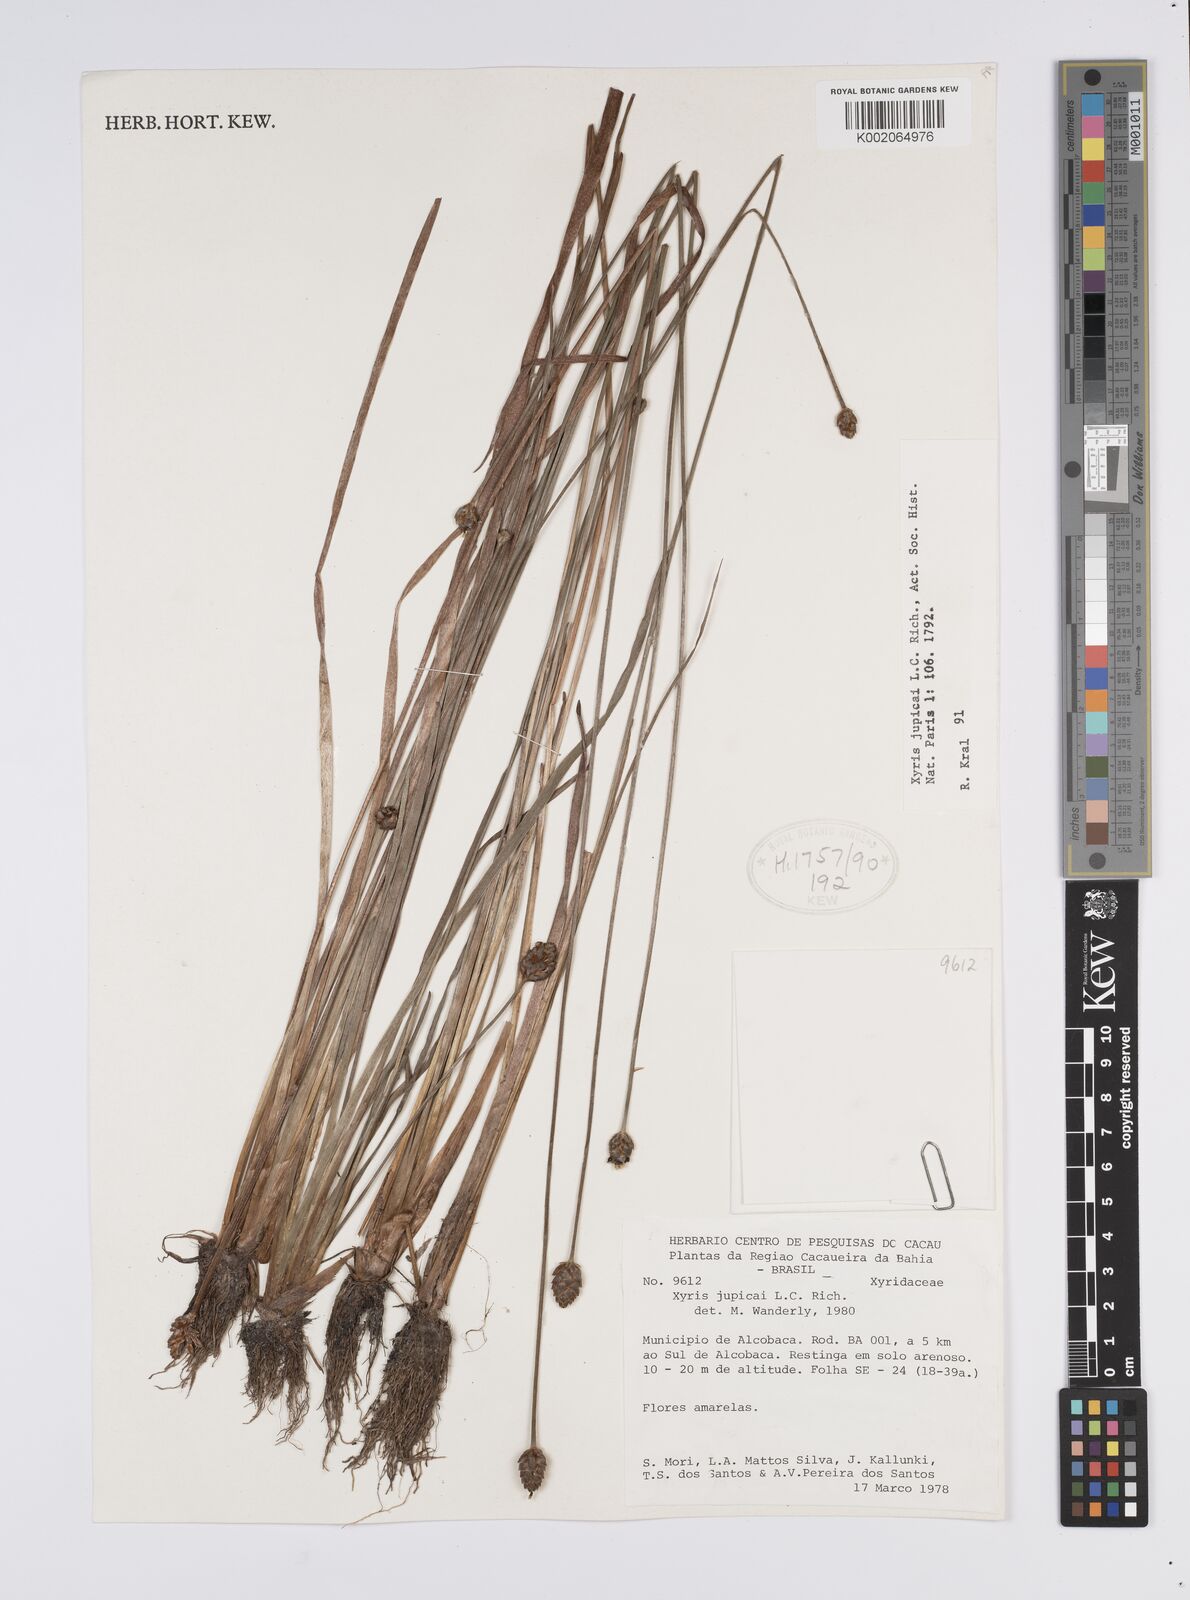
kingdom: Plantae
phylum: Tracheophyta
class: Liliopsida
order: Poales
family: Xyridaceae
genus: Xyris
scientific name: Xyris jupicai
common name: Richard's yelloweyed grass
